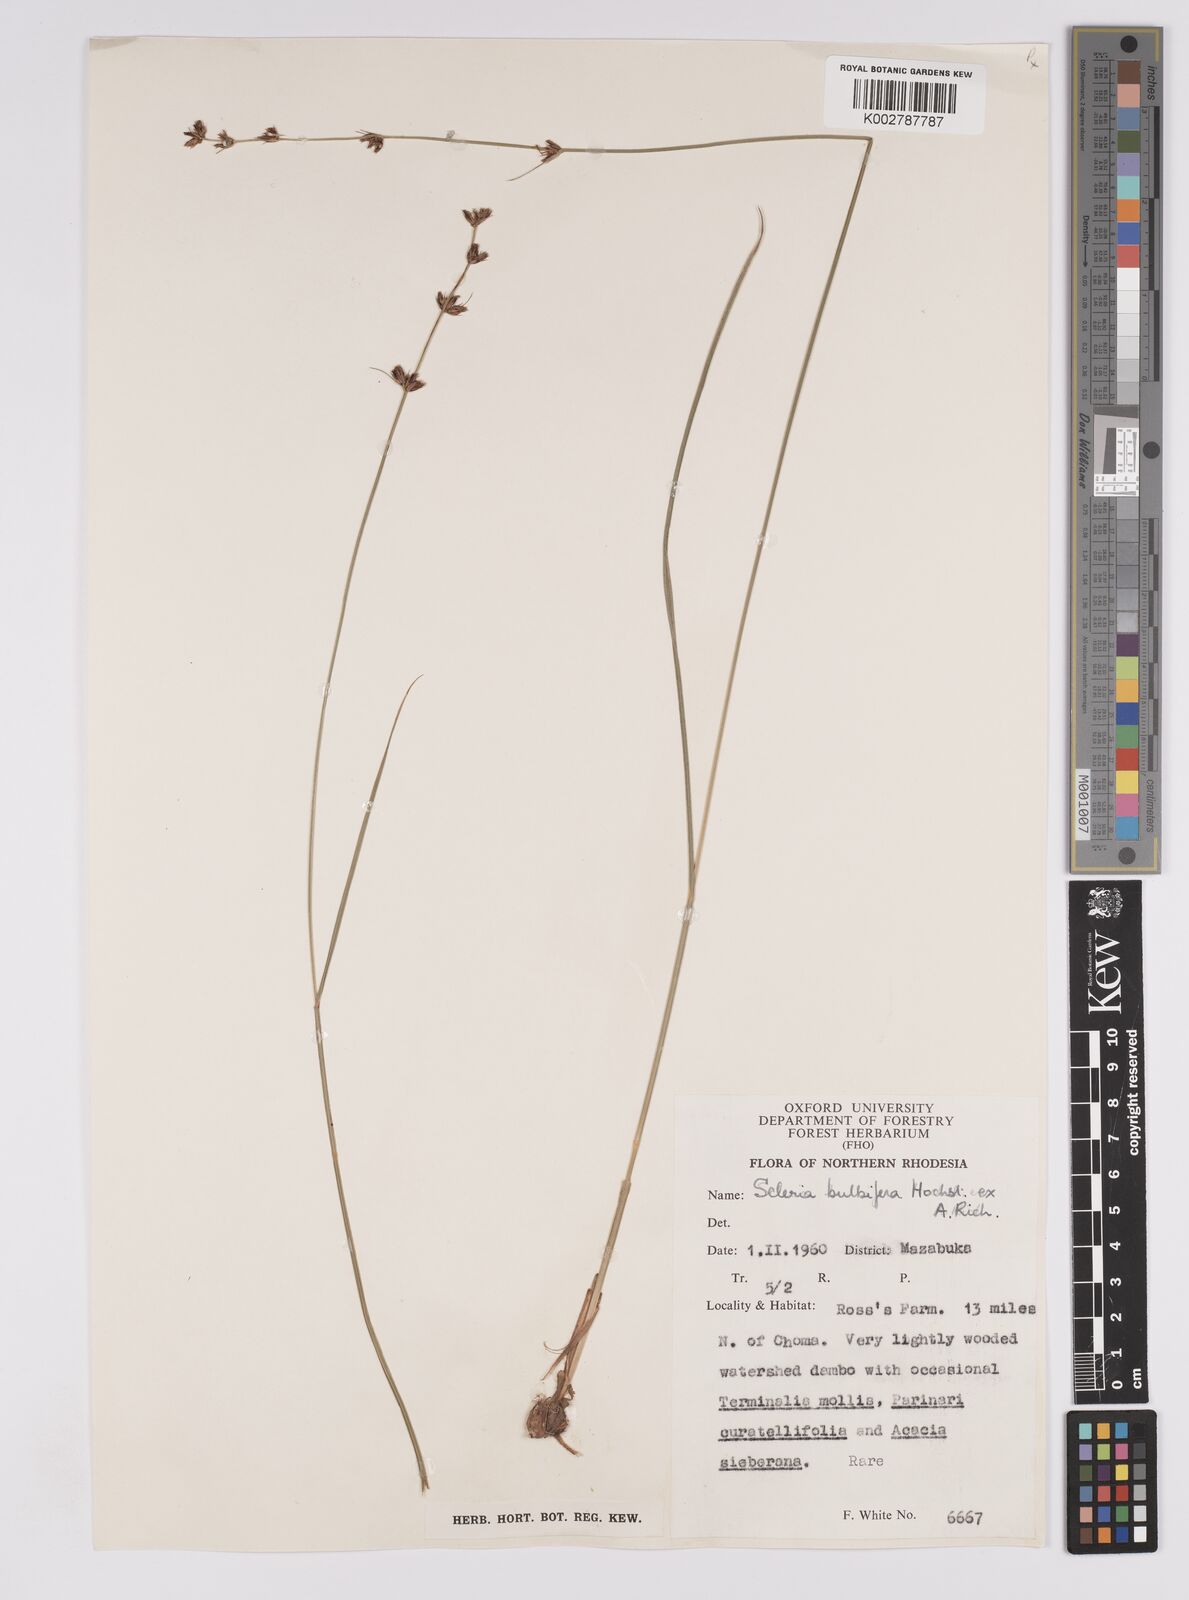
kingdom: Plantae
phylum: Tracheophyta
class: Liliopsida
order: Poales
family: Cyperaceae
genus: Scleria
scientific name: Scleria bulbifera
